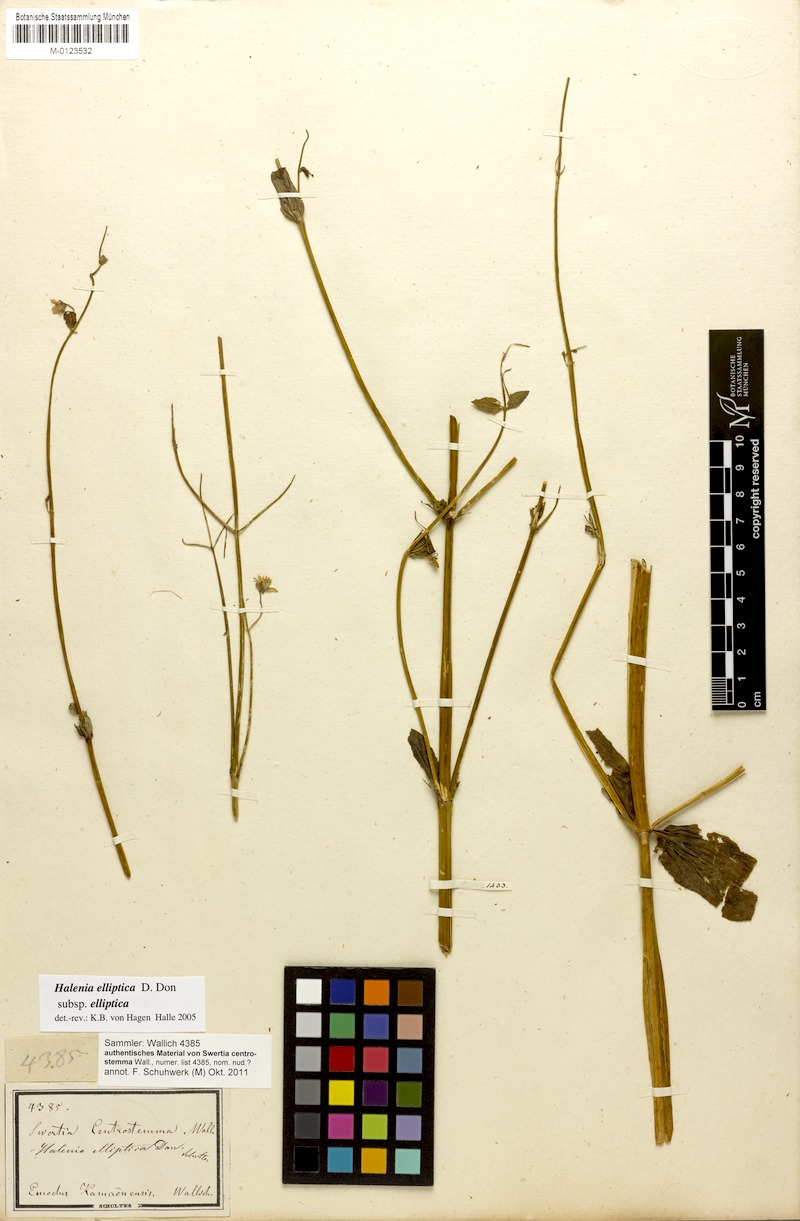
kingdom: Plantae
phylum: Tracheophyta
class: Magnoliopsida
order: Gentianales
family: Gentianaceae
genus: Halenia
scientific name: Halenia elliptica
